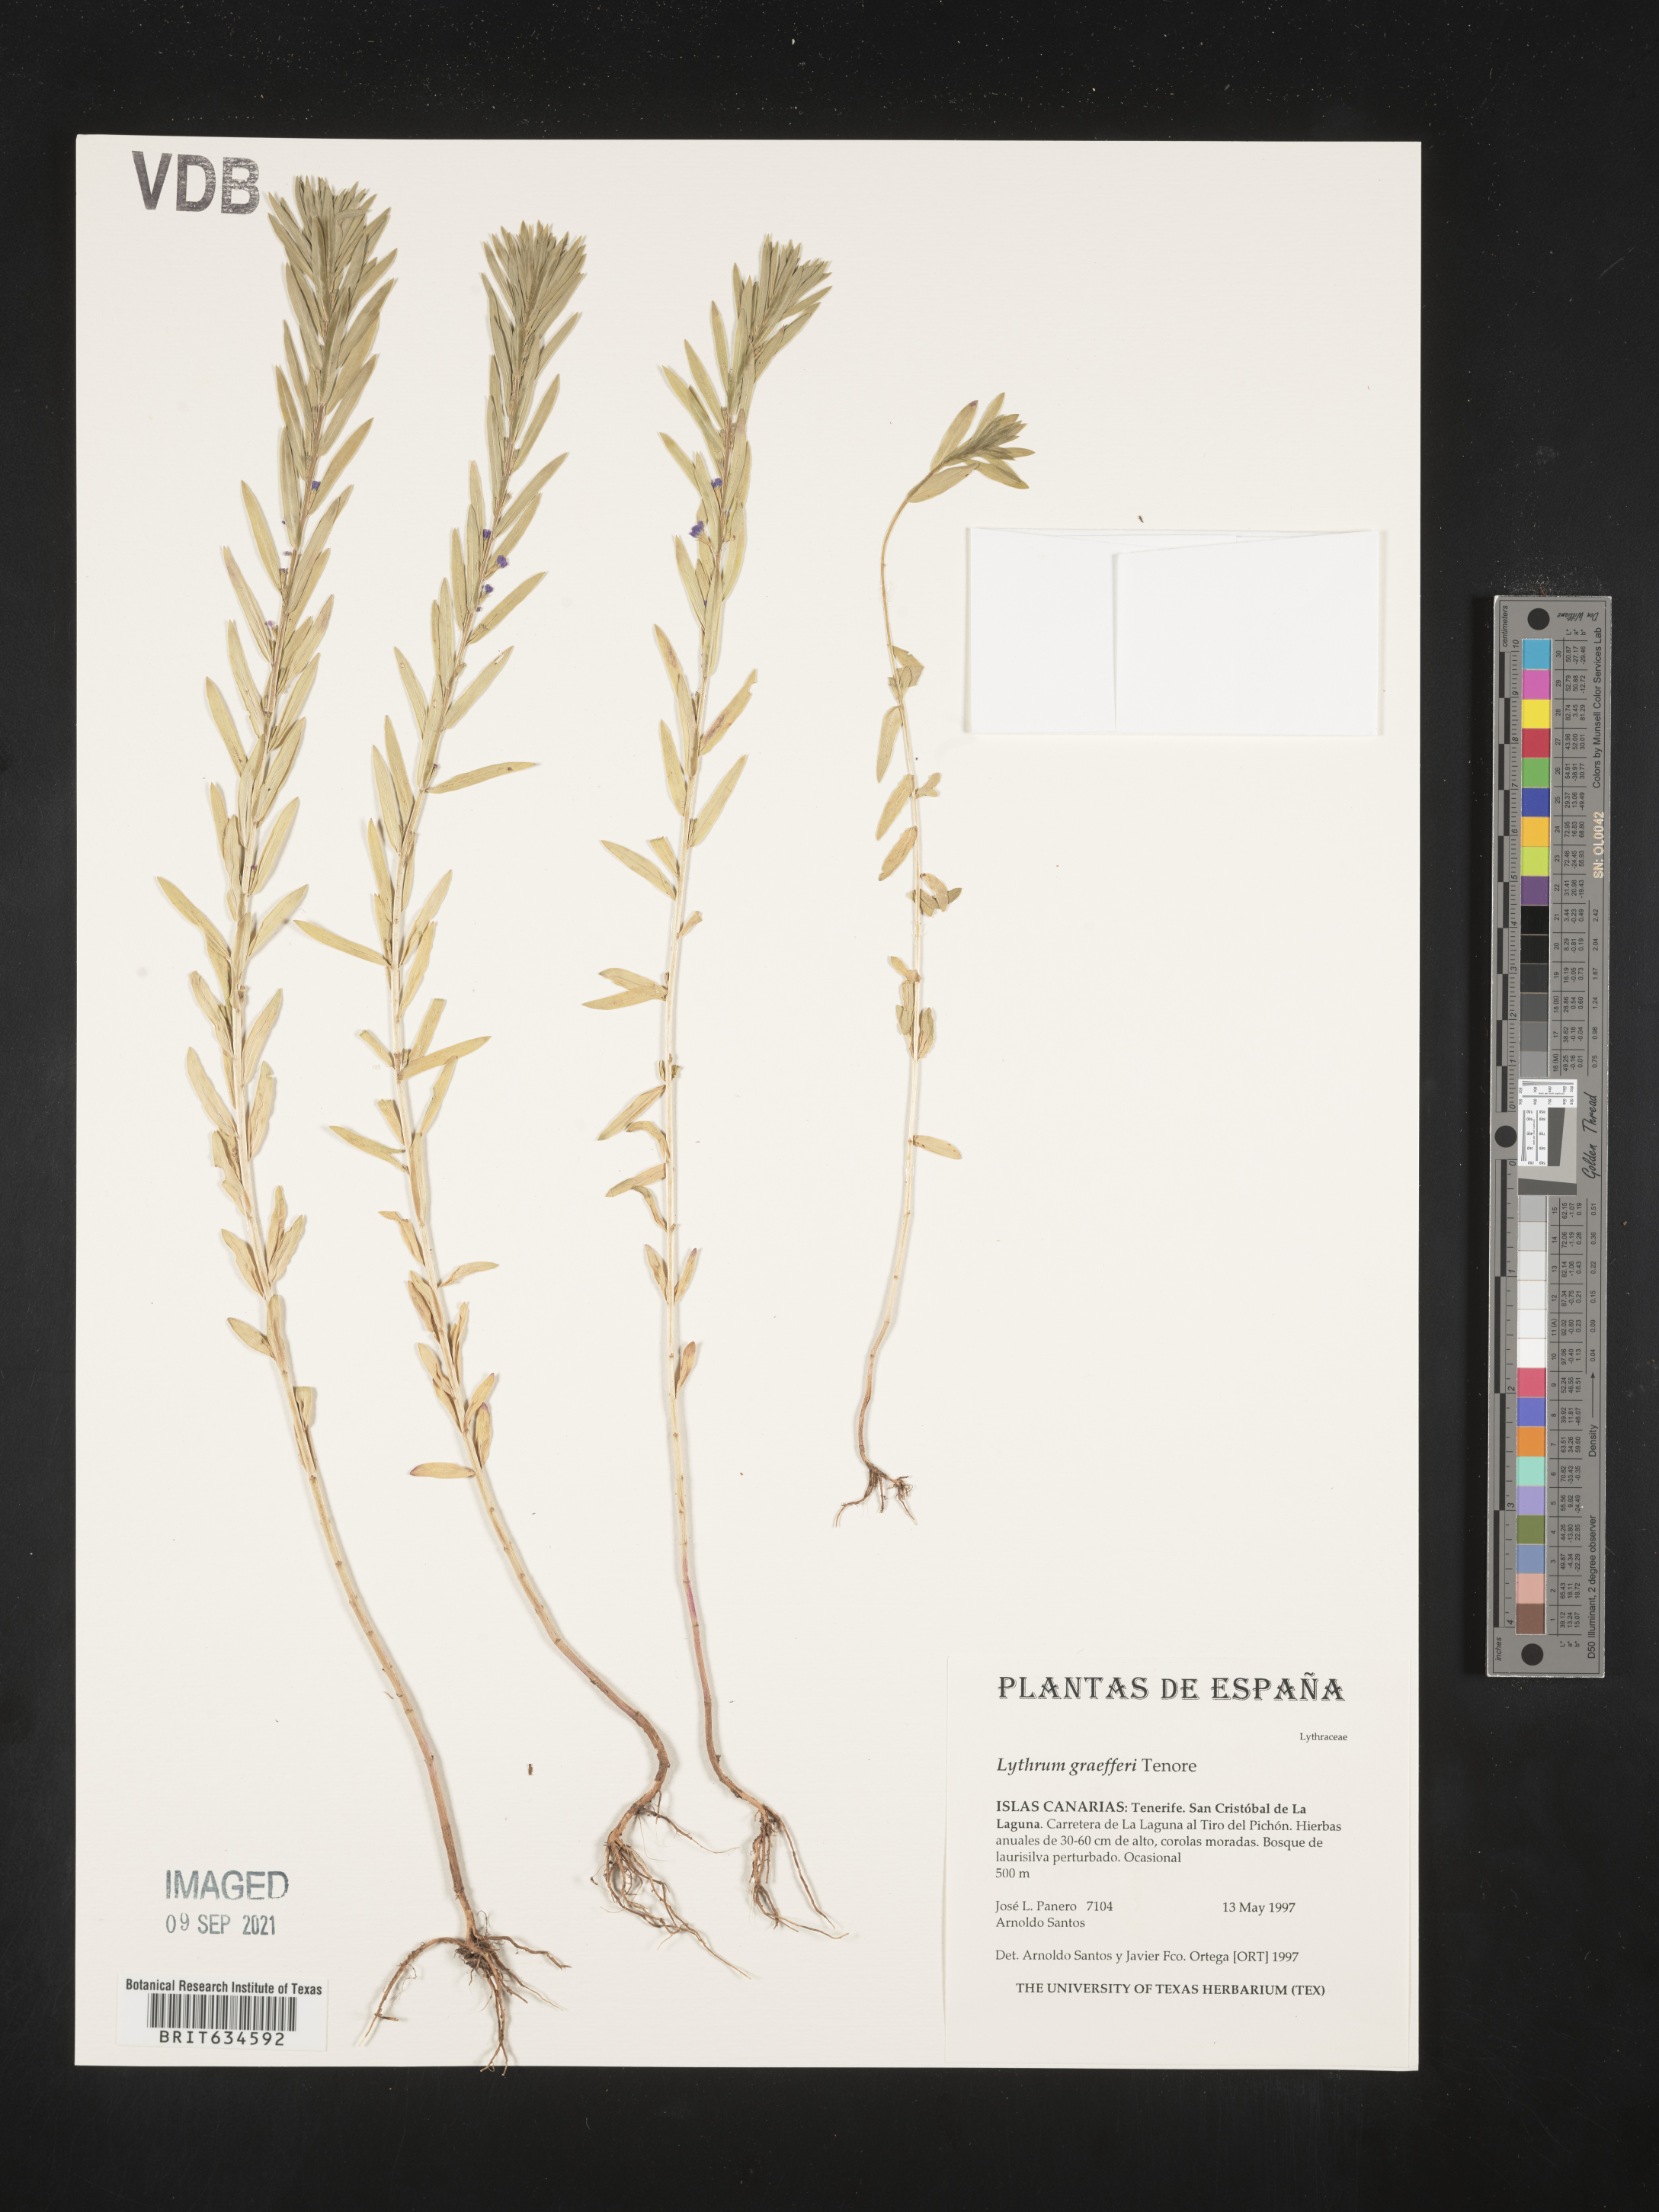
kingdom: Plantae
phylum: Tracheophyta
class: Magnoliopsida
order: Myrtales
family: Lythraceae
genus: Lythrum
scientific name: Lythrum
